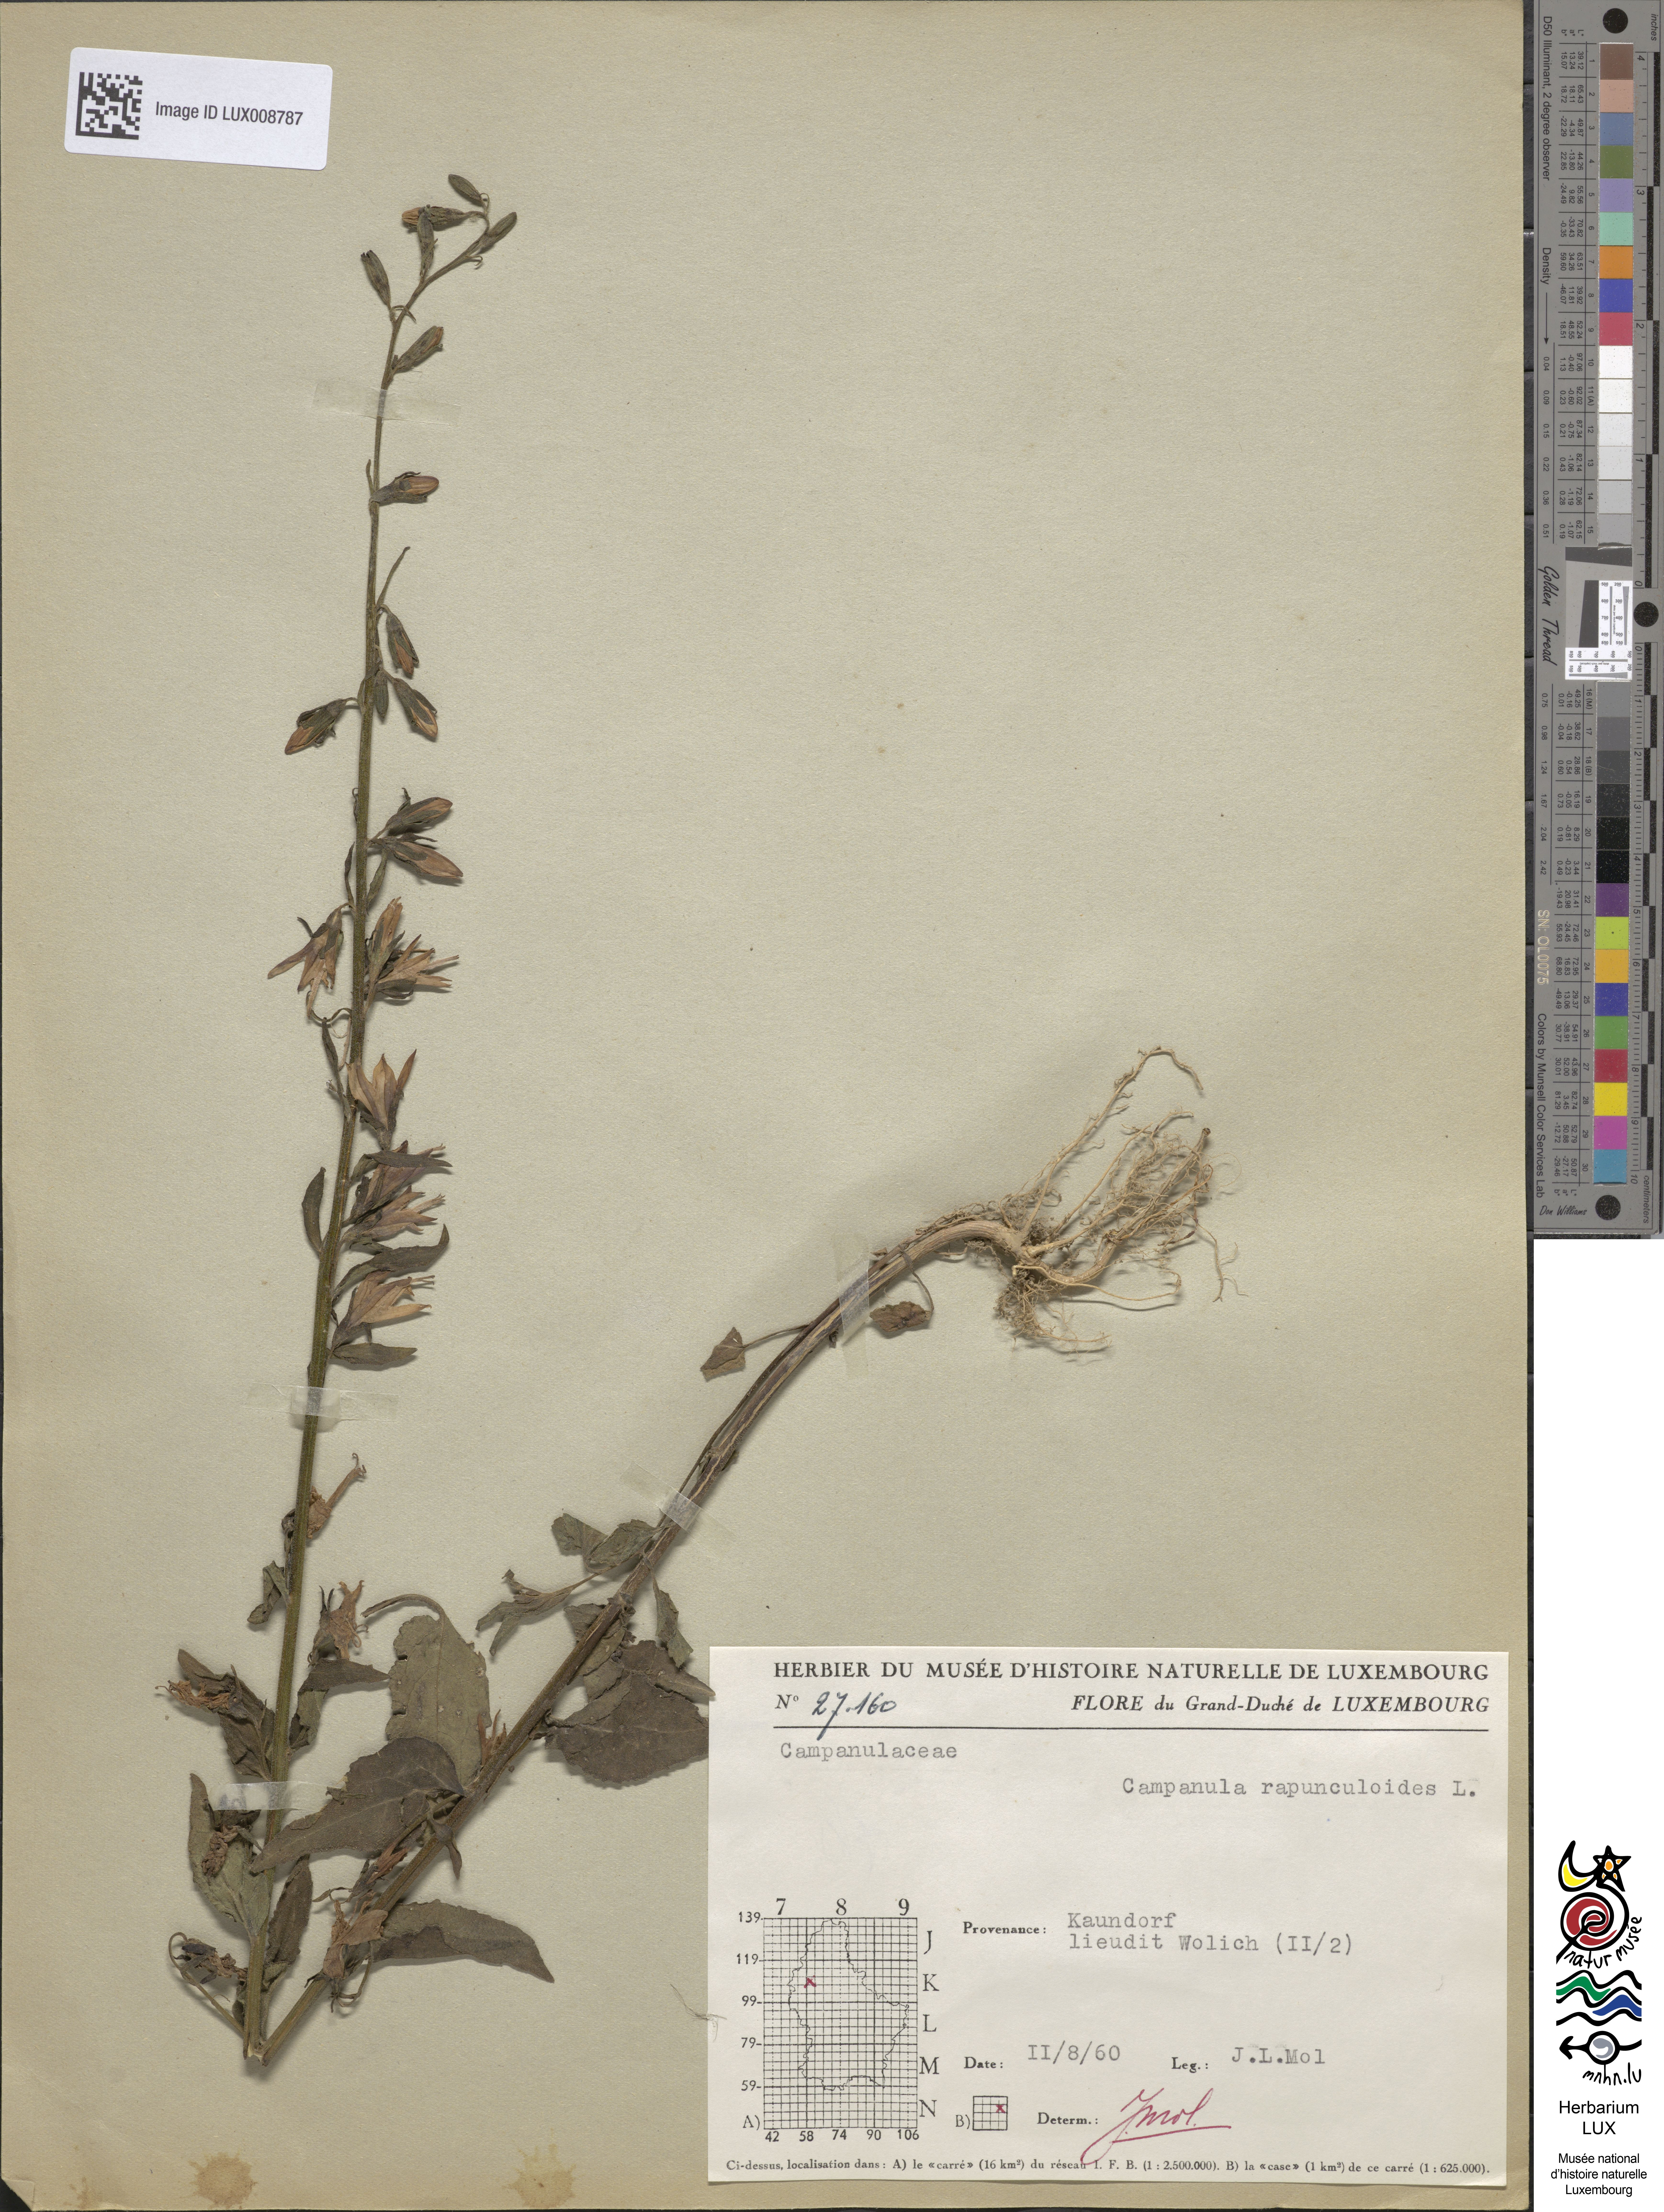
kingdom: Plantae
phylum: Tracheophyta
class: Magnoliopsida
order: Asterales
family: Campanulaceae
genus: Campanula
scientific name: Campanula rapunculoides
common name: Creeping bellflower
